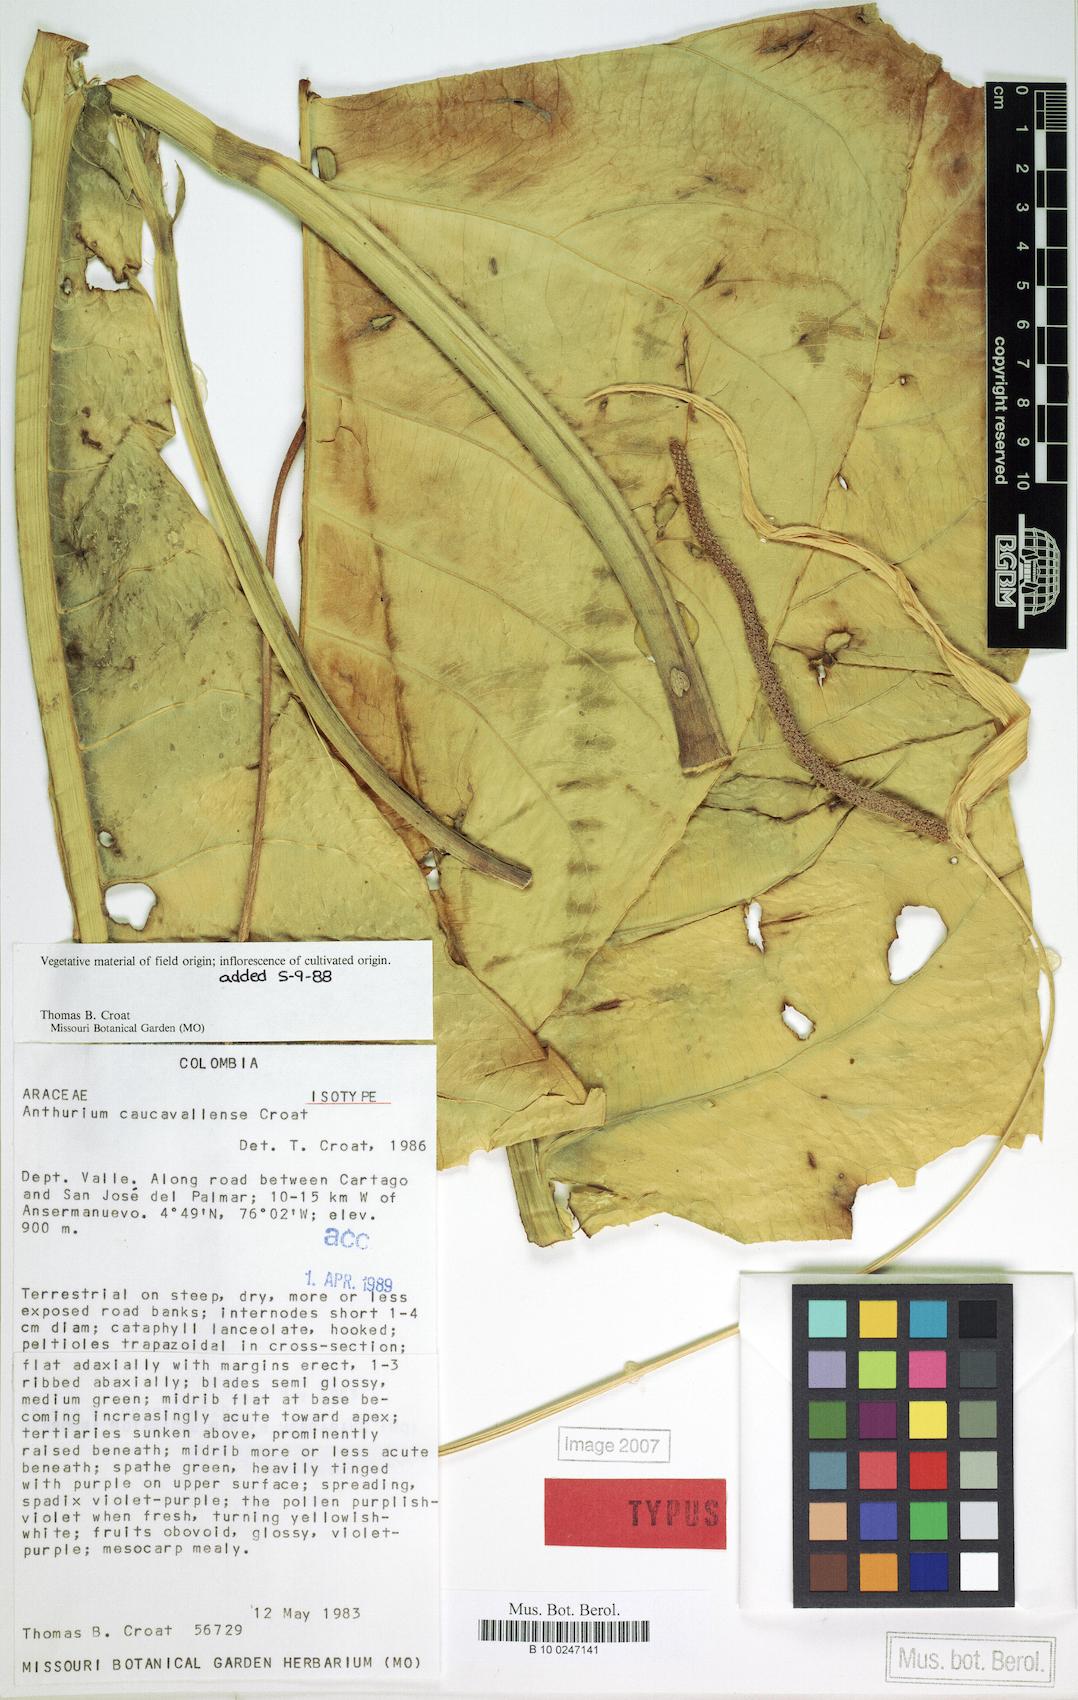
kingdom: Plantae
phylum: Tracheophyta
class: Liliopsida
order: Alismatales
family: Araceae
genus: Anthurium
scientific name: Anthurium caucavallense
